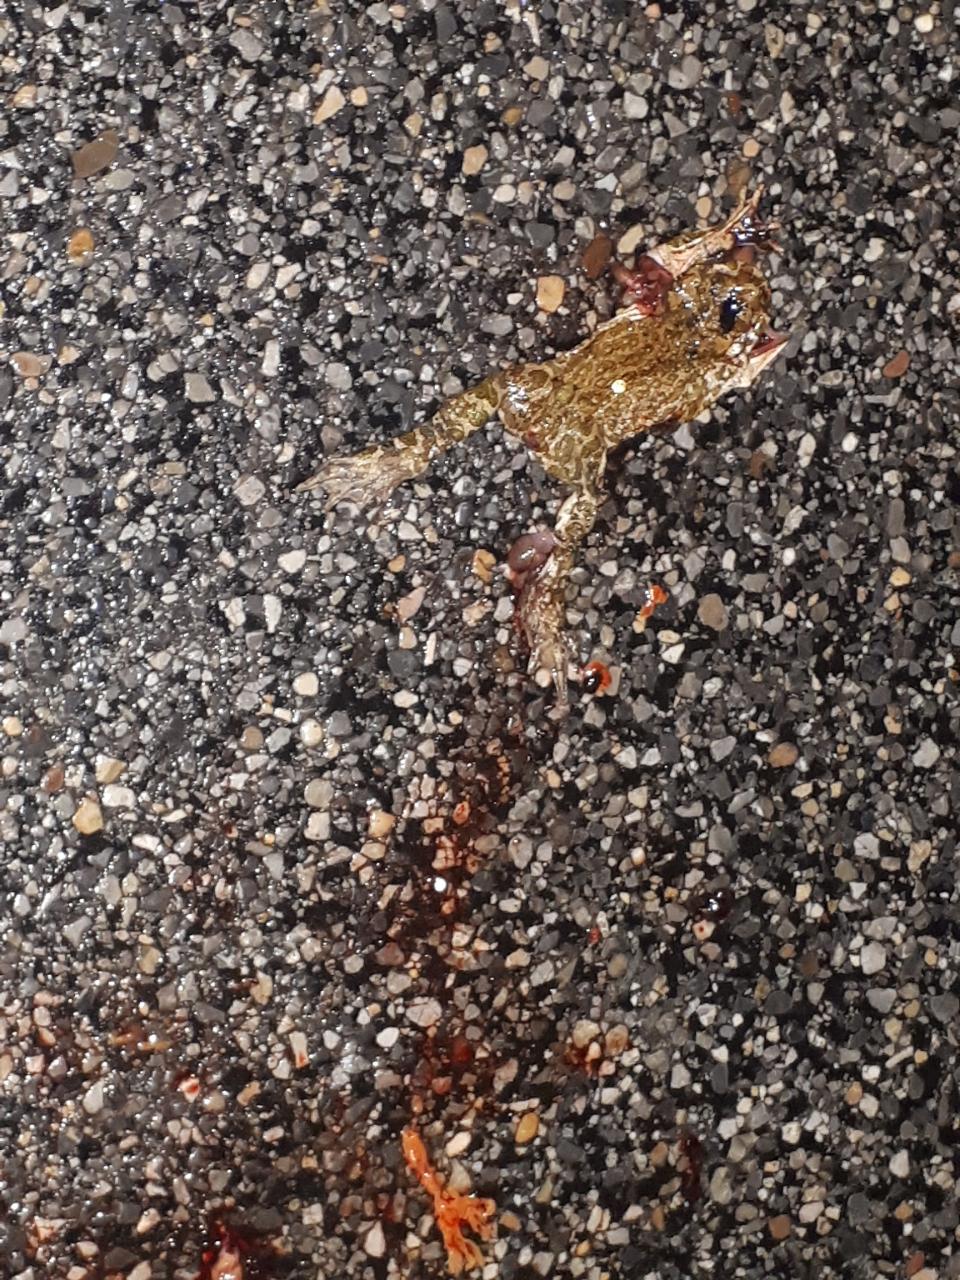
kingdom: Animalia
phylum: Chordata
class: Amphibia
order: Anura
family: Bufonidae
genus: Bufotes
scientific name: Bufotes viridis
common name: European green toad
